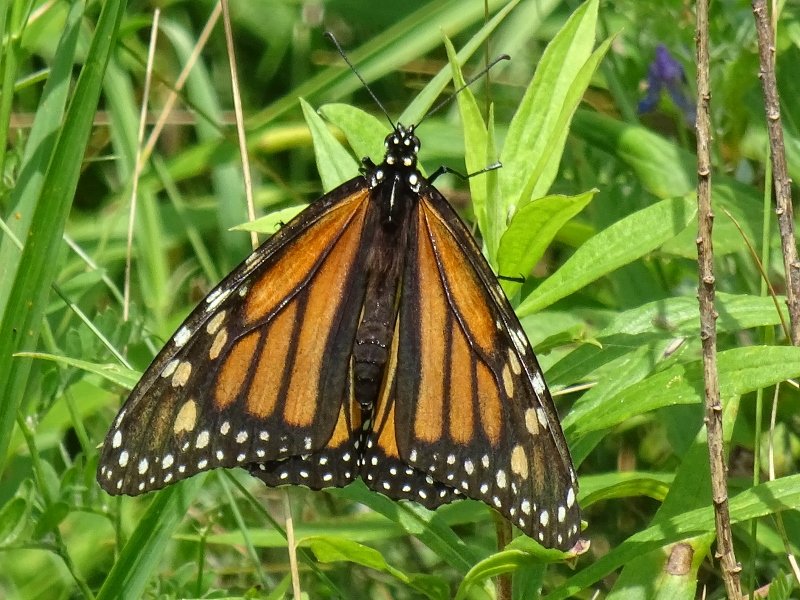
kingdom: Animalia
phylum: Arthropoda
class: Insecta
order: Lepidoptera
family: Nymphalidae
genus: Danaus
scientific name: Danaus plexippus
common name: Monarch
